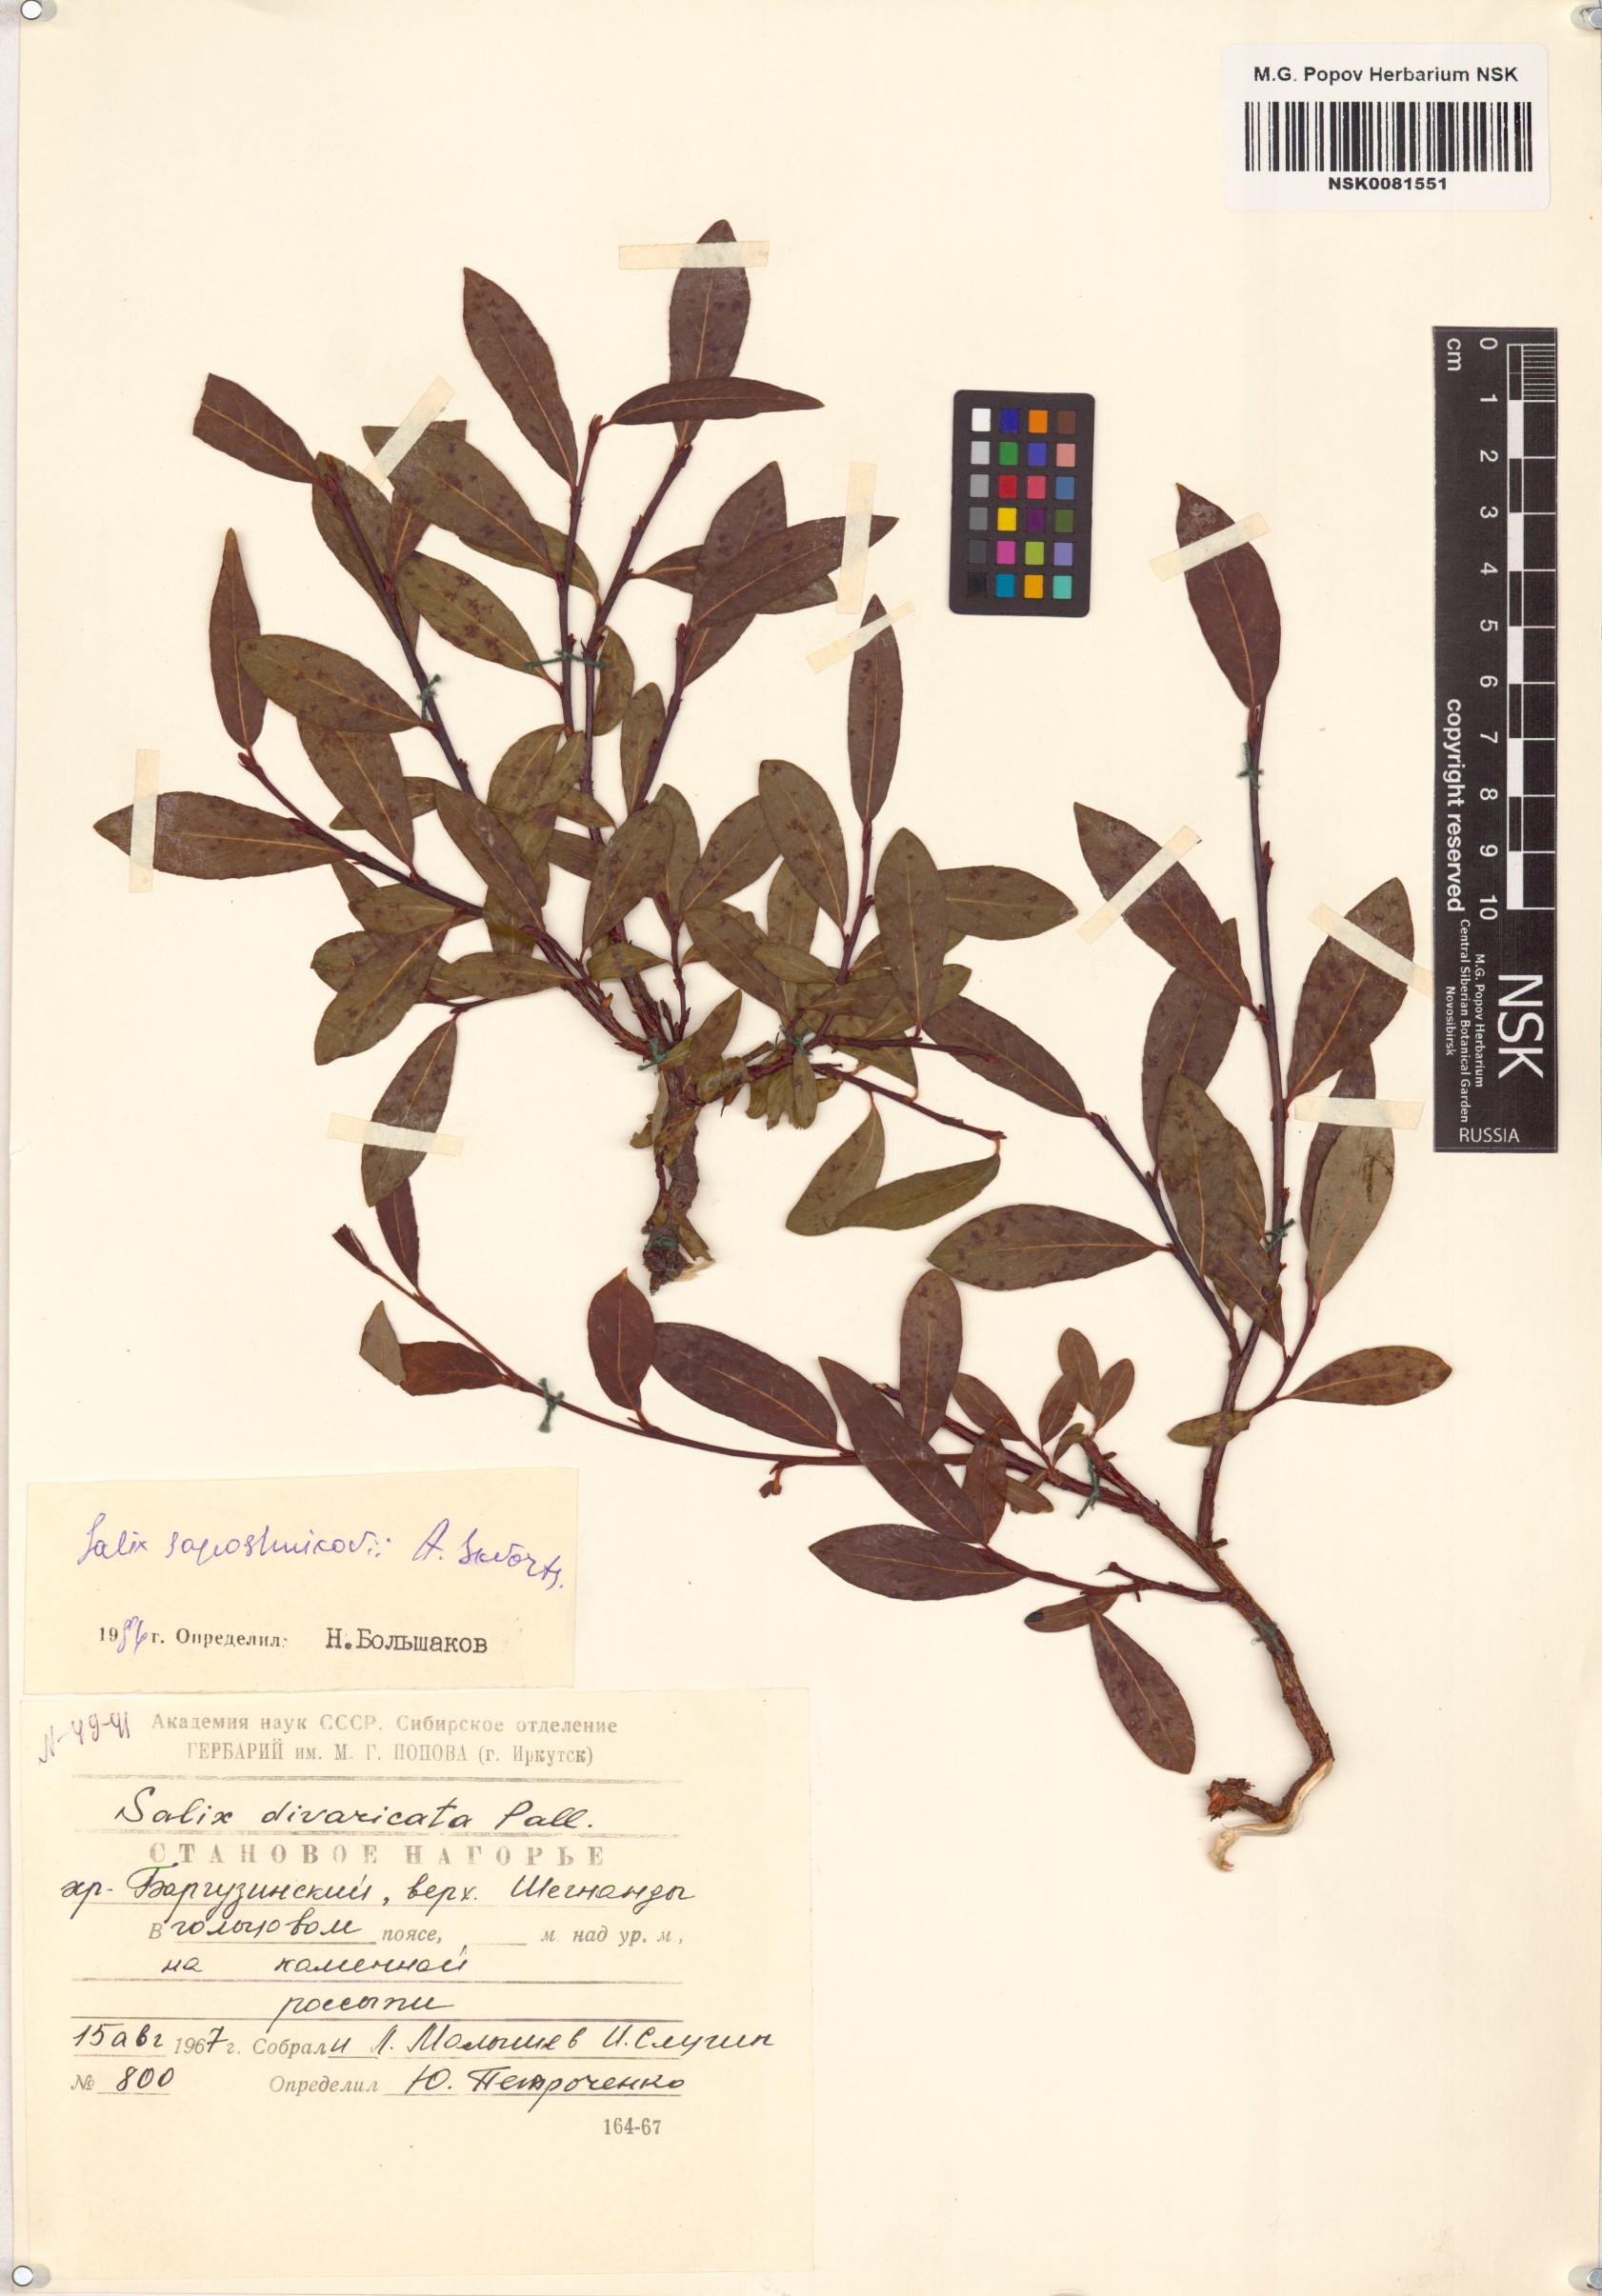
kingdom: Plantae
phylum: Tracheophyta
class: Magnoliopsida
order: Malpighiales
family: Salicaceae
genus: Salix
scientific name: Salix saposhnikovii
